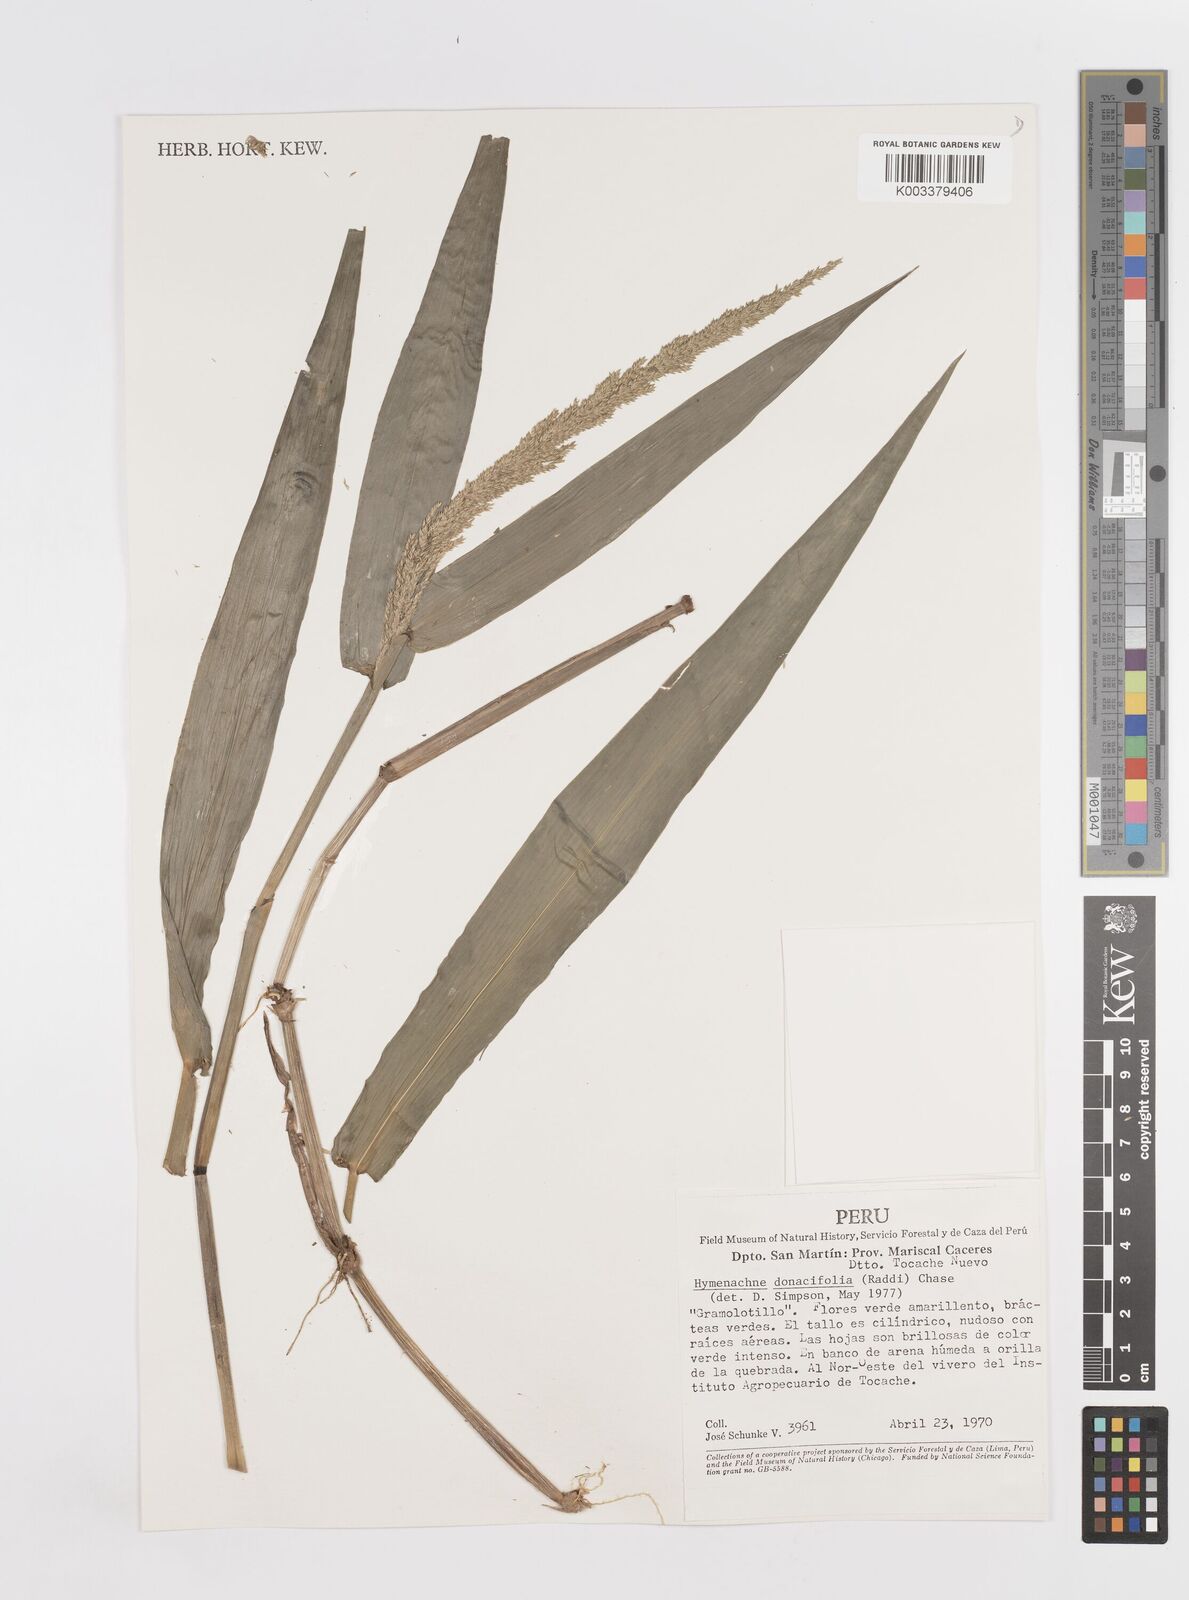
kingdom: Plantae
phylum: Tracheophyta
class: Liliopsida
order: Poales
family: Poaceae
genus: Hymenachne
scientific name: Hymenachne donacifolia
